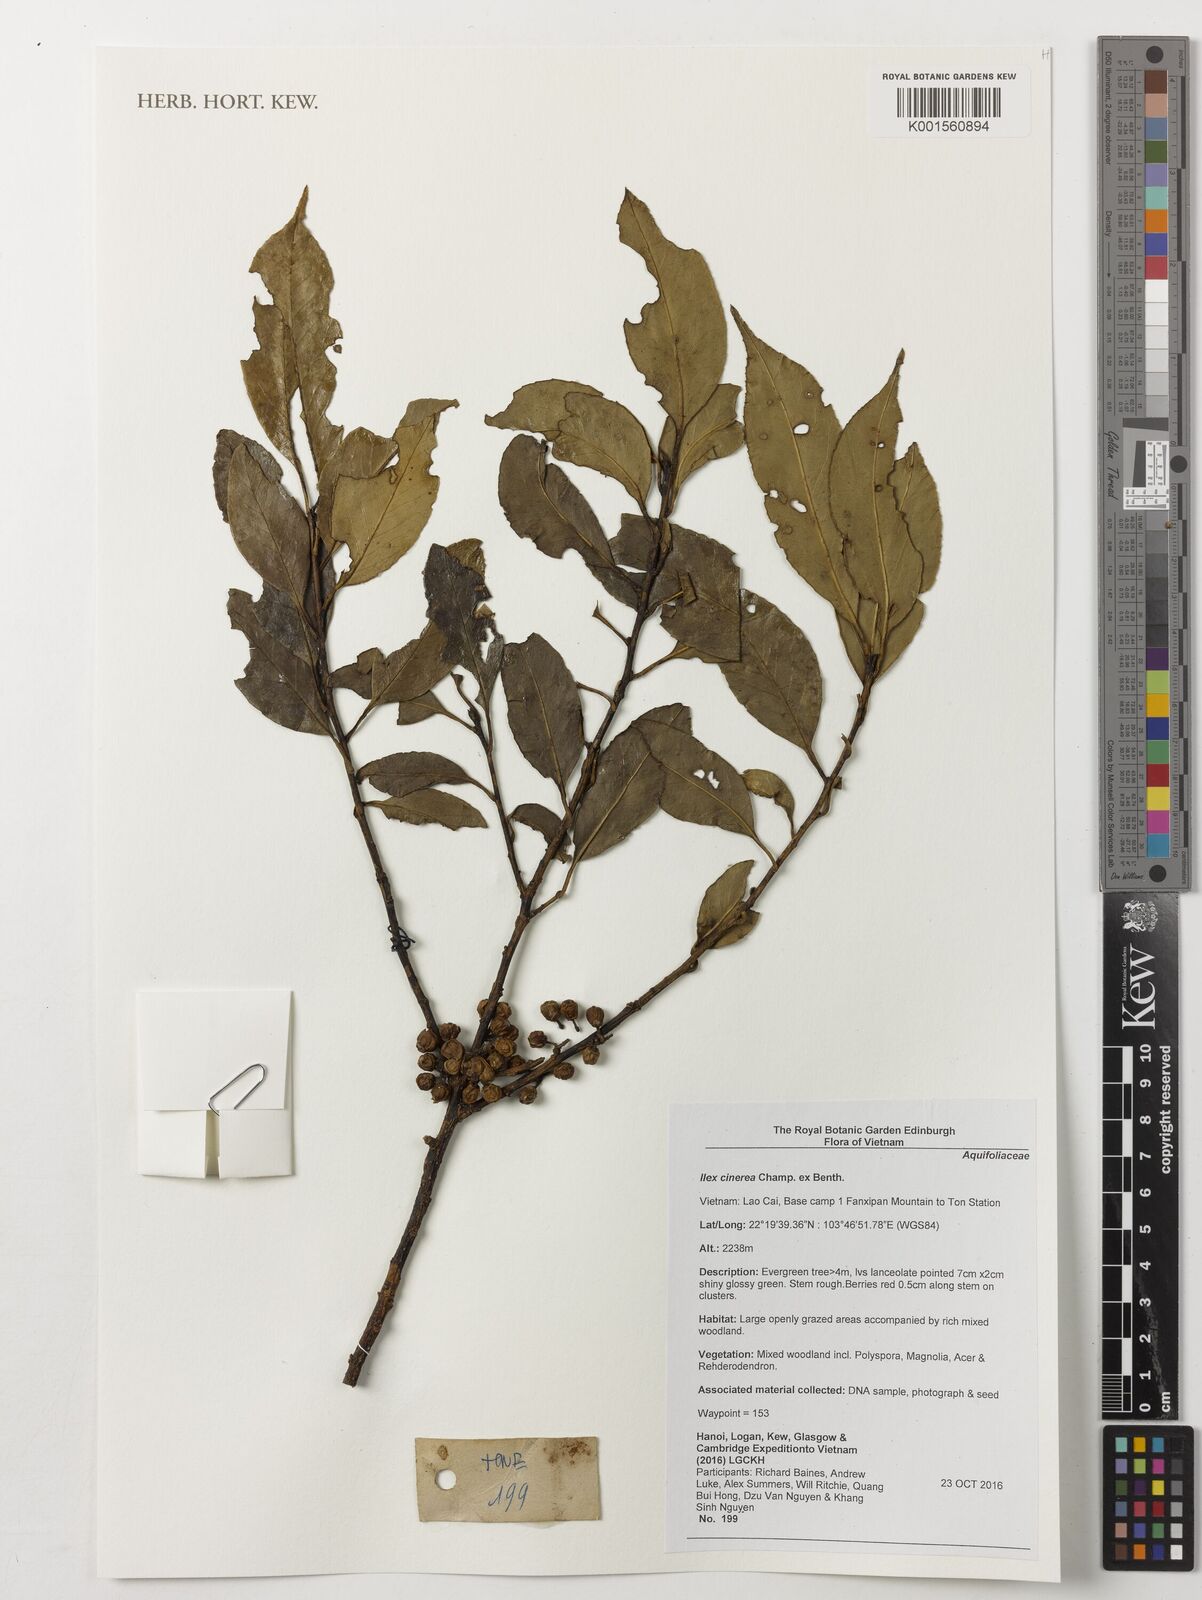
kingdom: Plantae
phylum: Tracheophyta
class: Magnoliopsida
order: Aquifoliales
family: Aquifoliaceae
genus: Ilex
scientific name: Ilex cinerea
